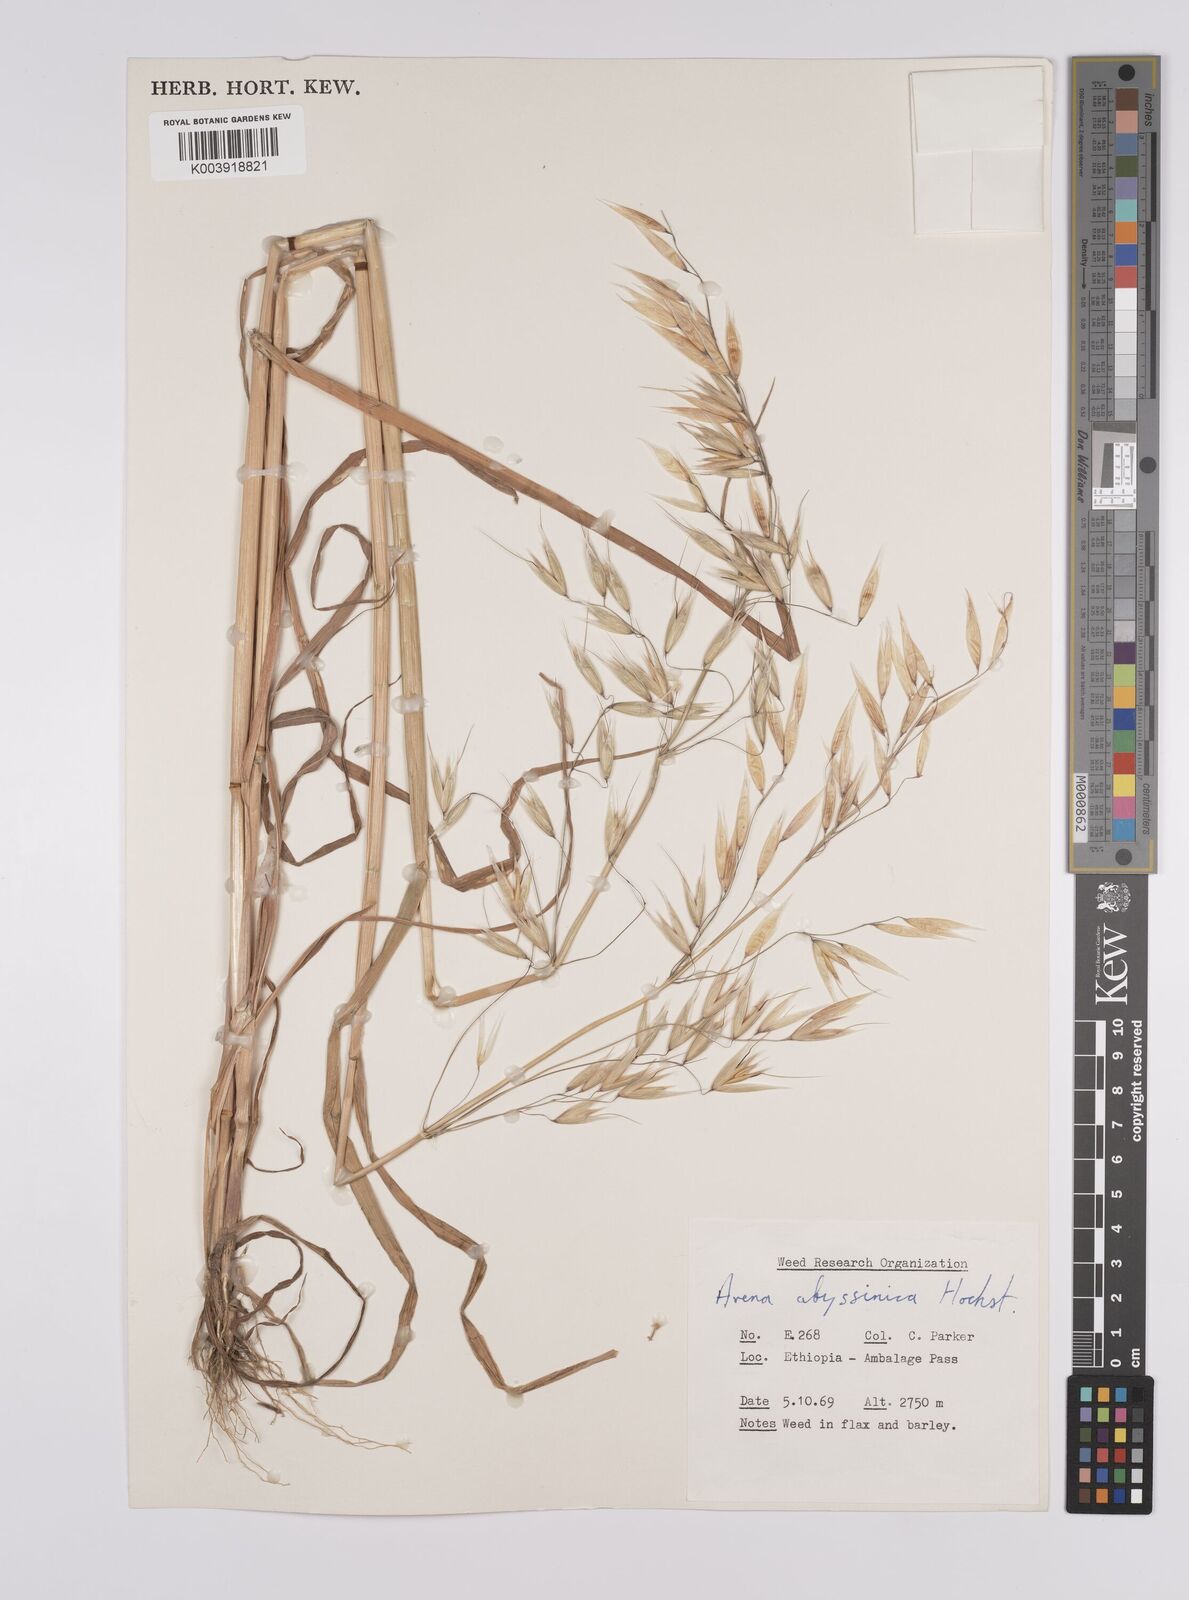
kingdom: Plantae
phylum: Tracheophyta
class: Liliopsida
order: Poales
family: Poaceae
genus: Avena
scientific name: Avena abyssinica
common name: Ethiopian oat
